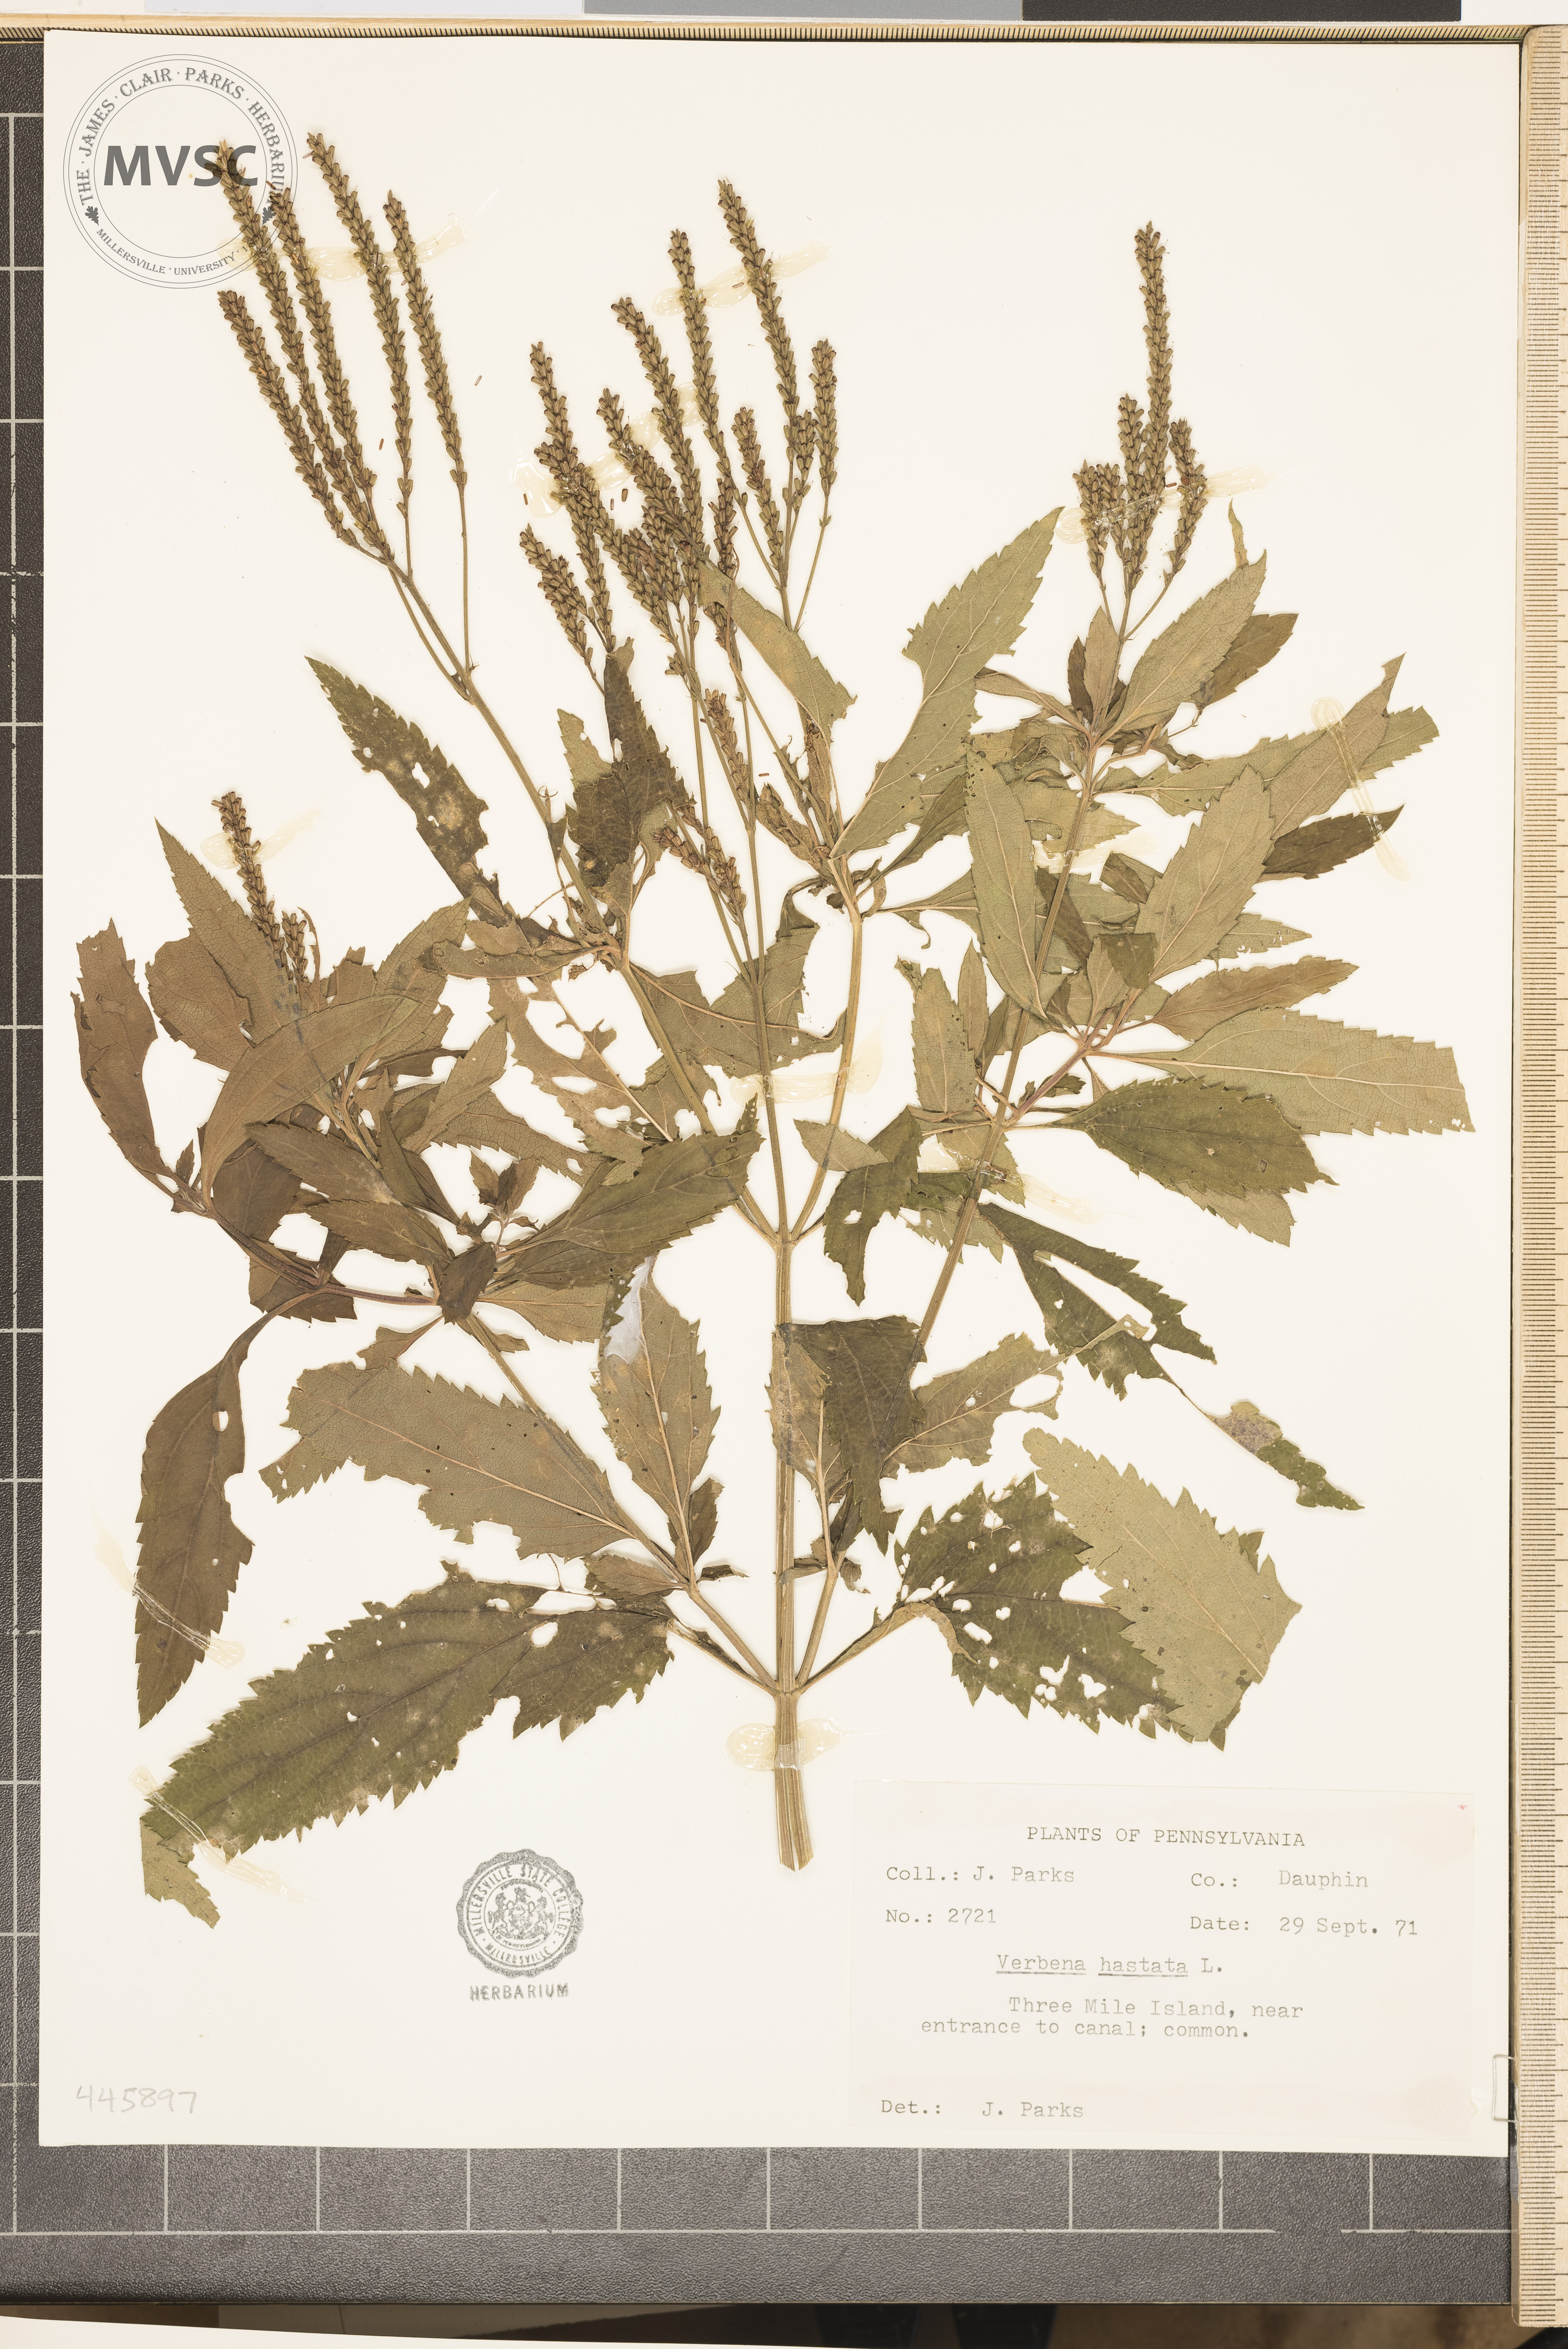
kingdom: Plantae
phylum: Tracheophyta
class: Magnoliopsida
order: Lamiales
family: Verbenaceae
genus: Verbena
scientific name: Verbena hastata
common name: American blue vervain
